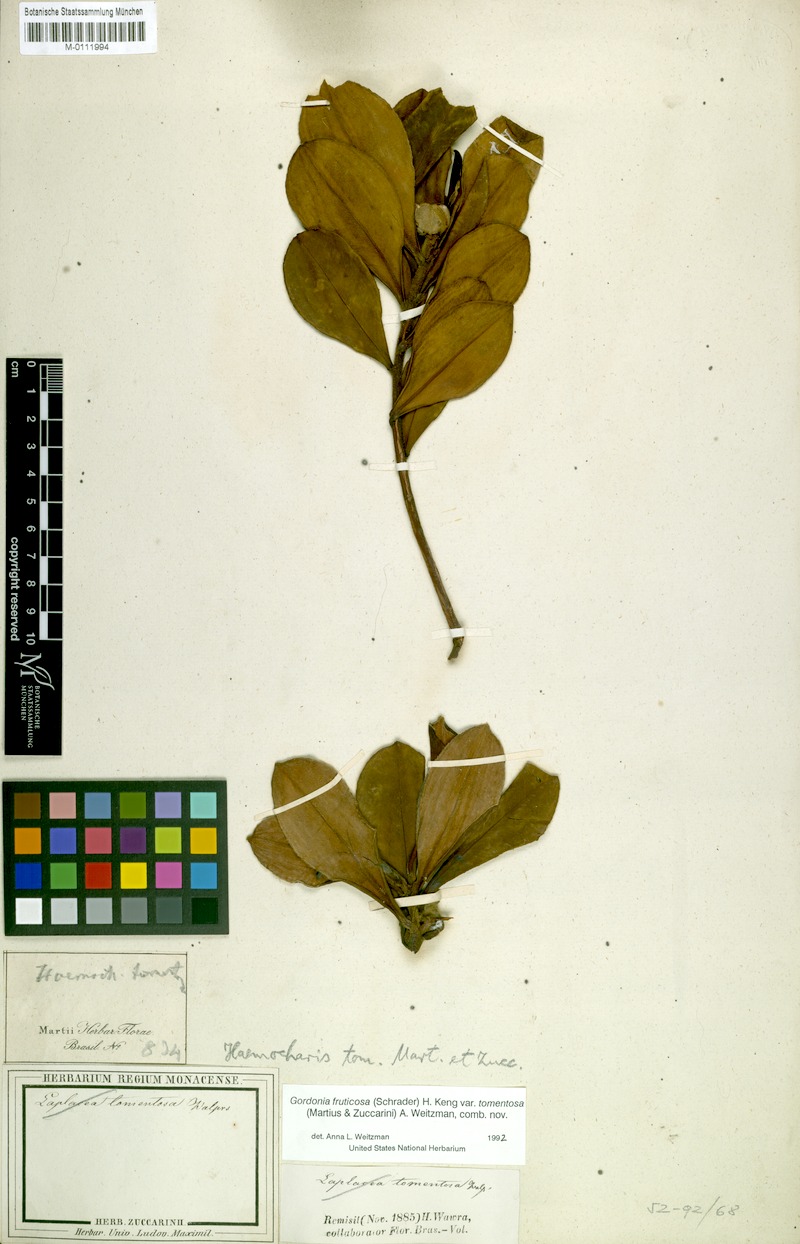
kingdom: Plantae
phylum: Tracheophyta
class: Magnoliopsida
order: Ericales
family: Theaceae
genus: Gordonia
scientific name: Gordonia tomentosa
